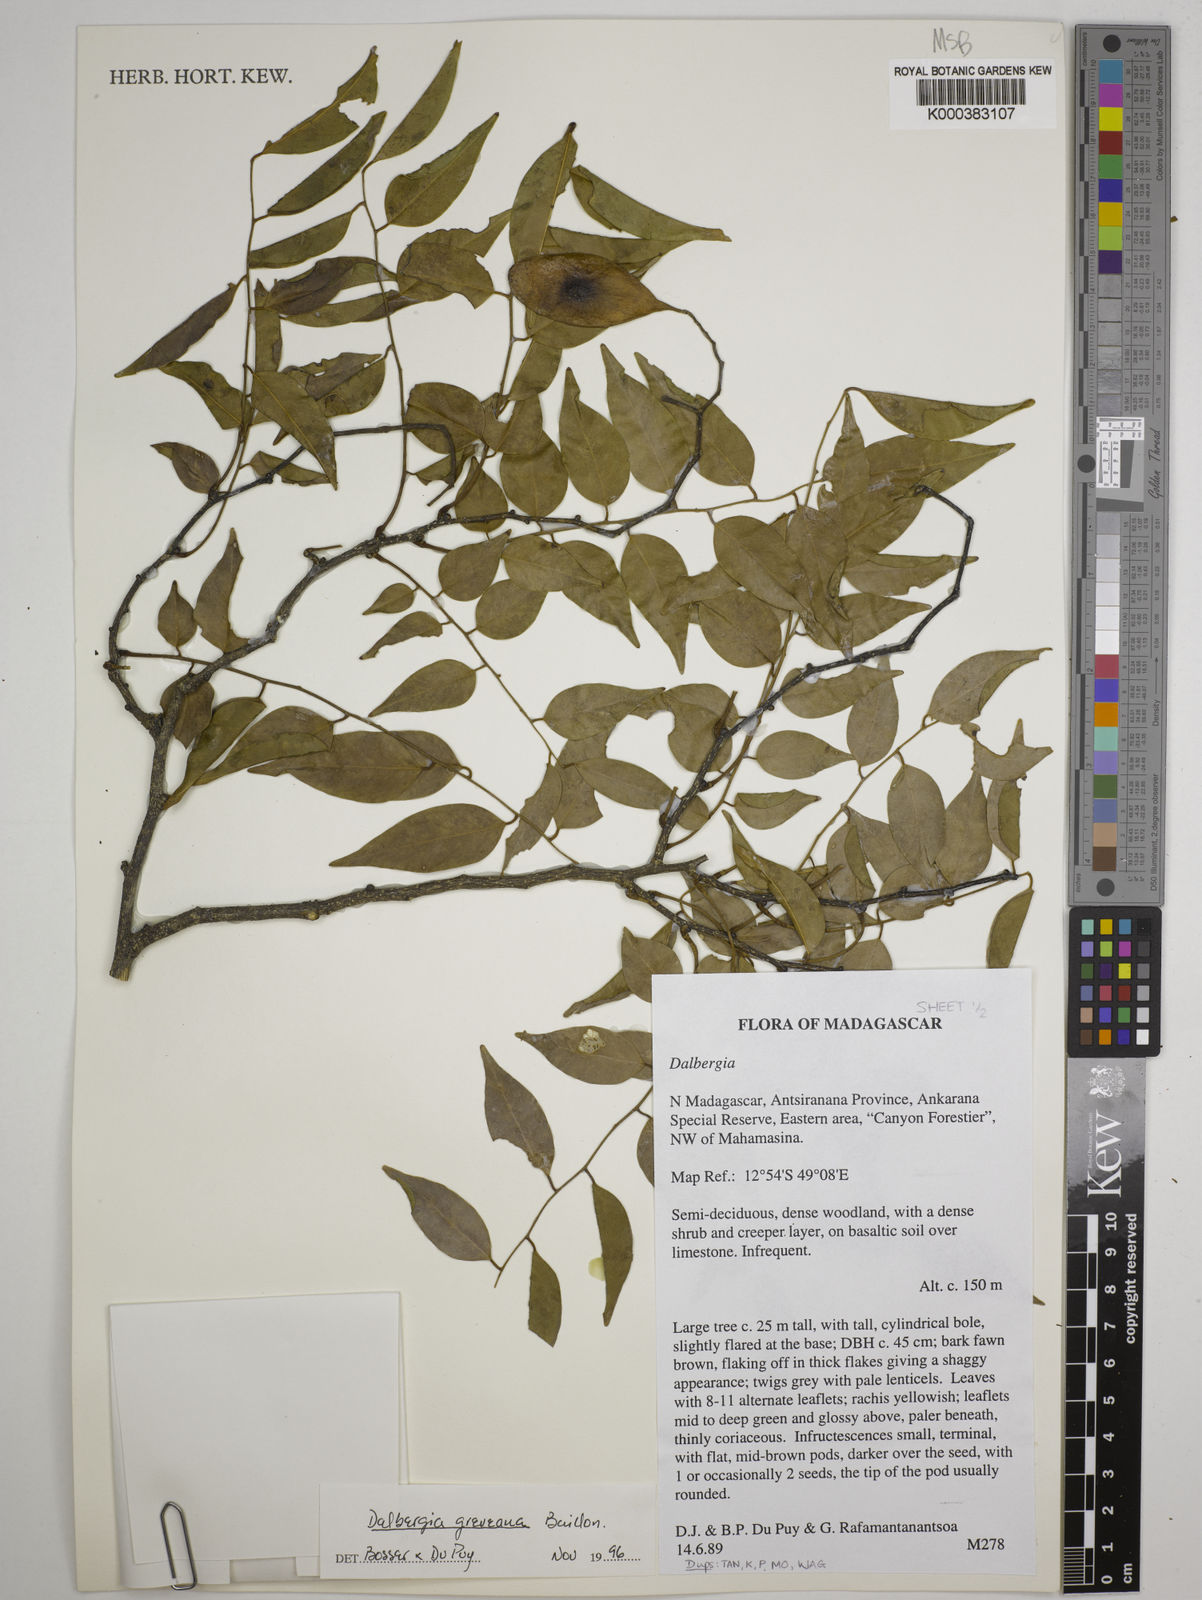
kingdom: Plantae
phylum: Tracheophyta
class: Magnoliopsida
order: Fabales
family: Fabaceae
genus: Dalbergia
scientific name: Dalbergia greveana
